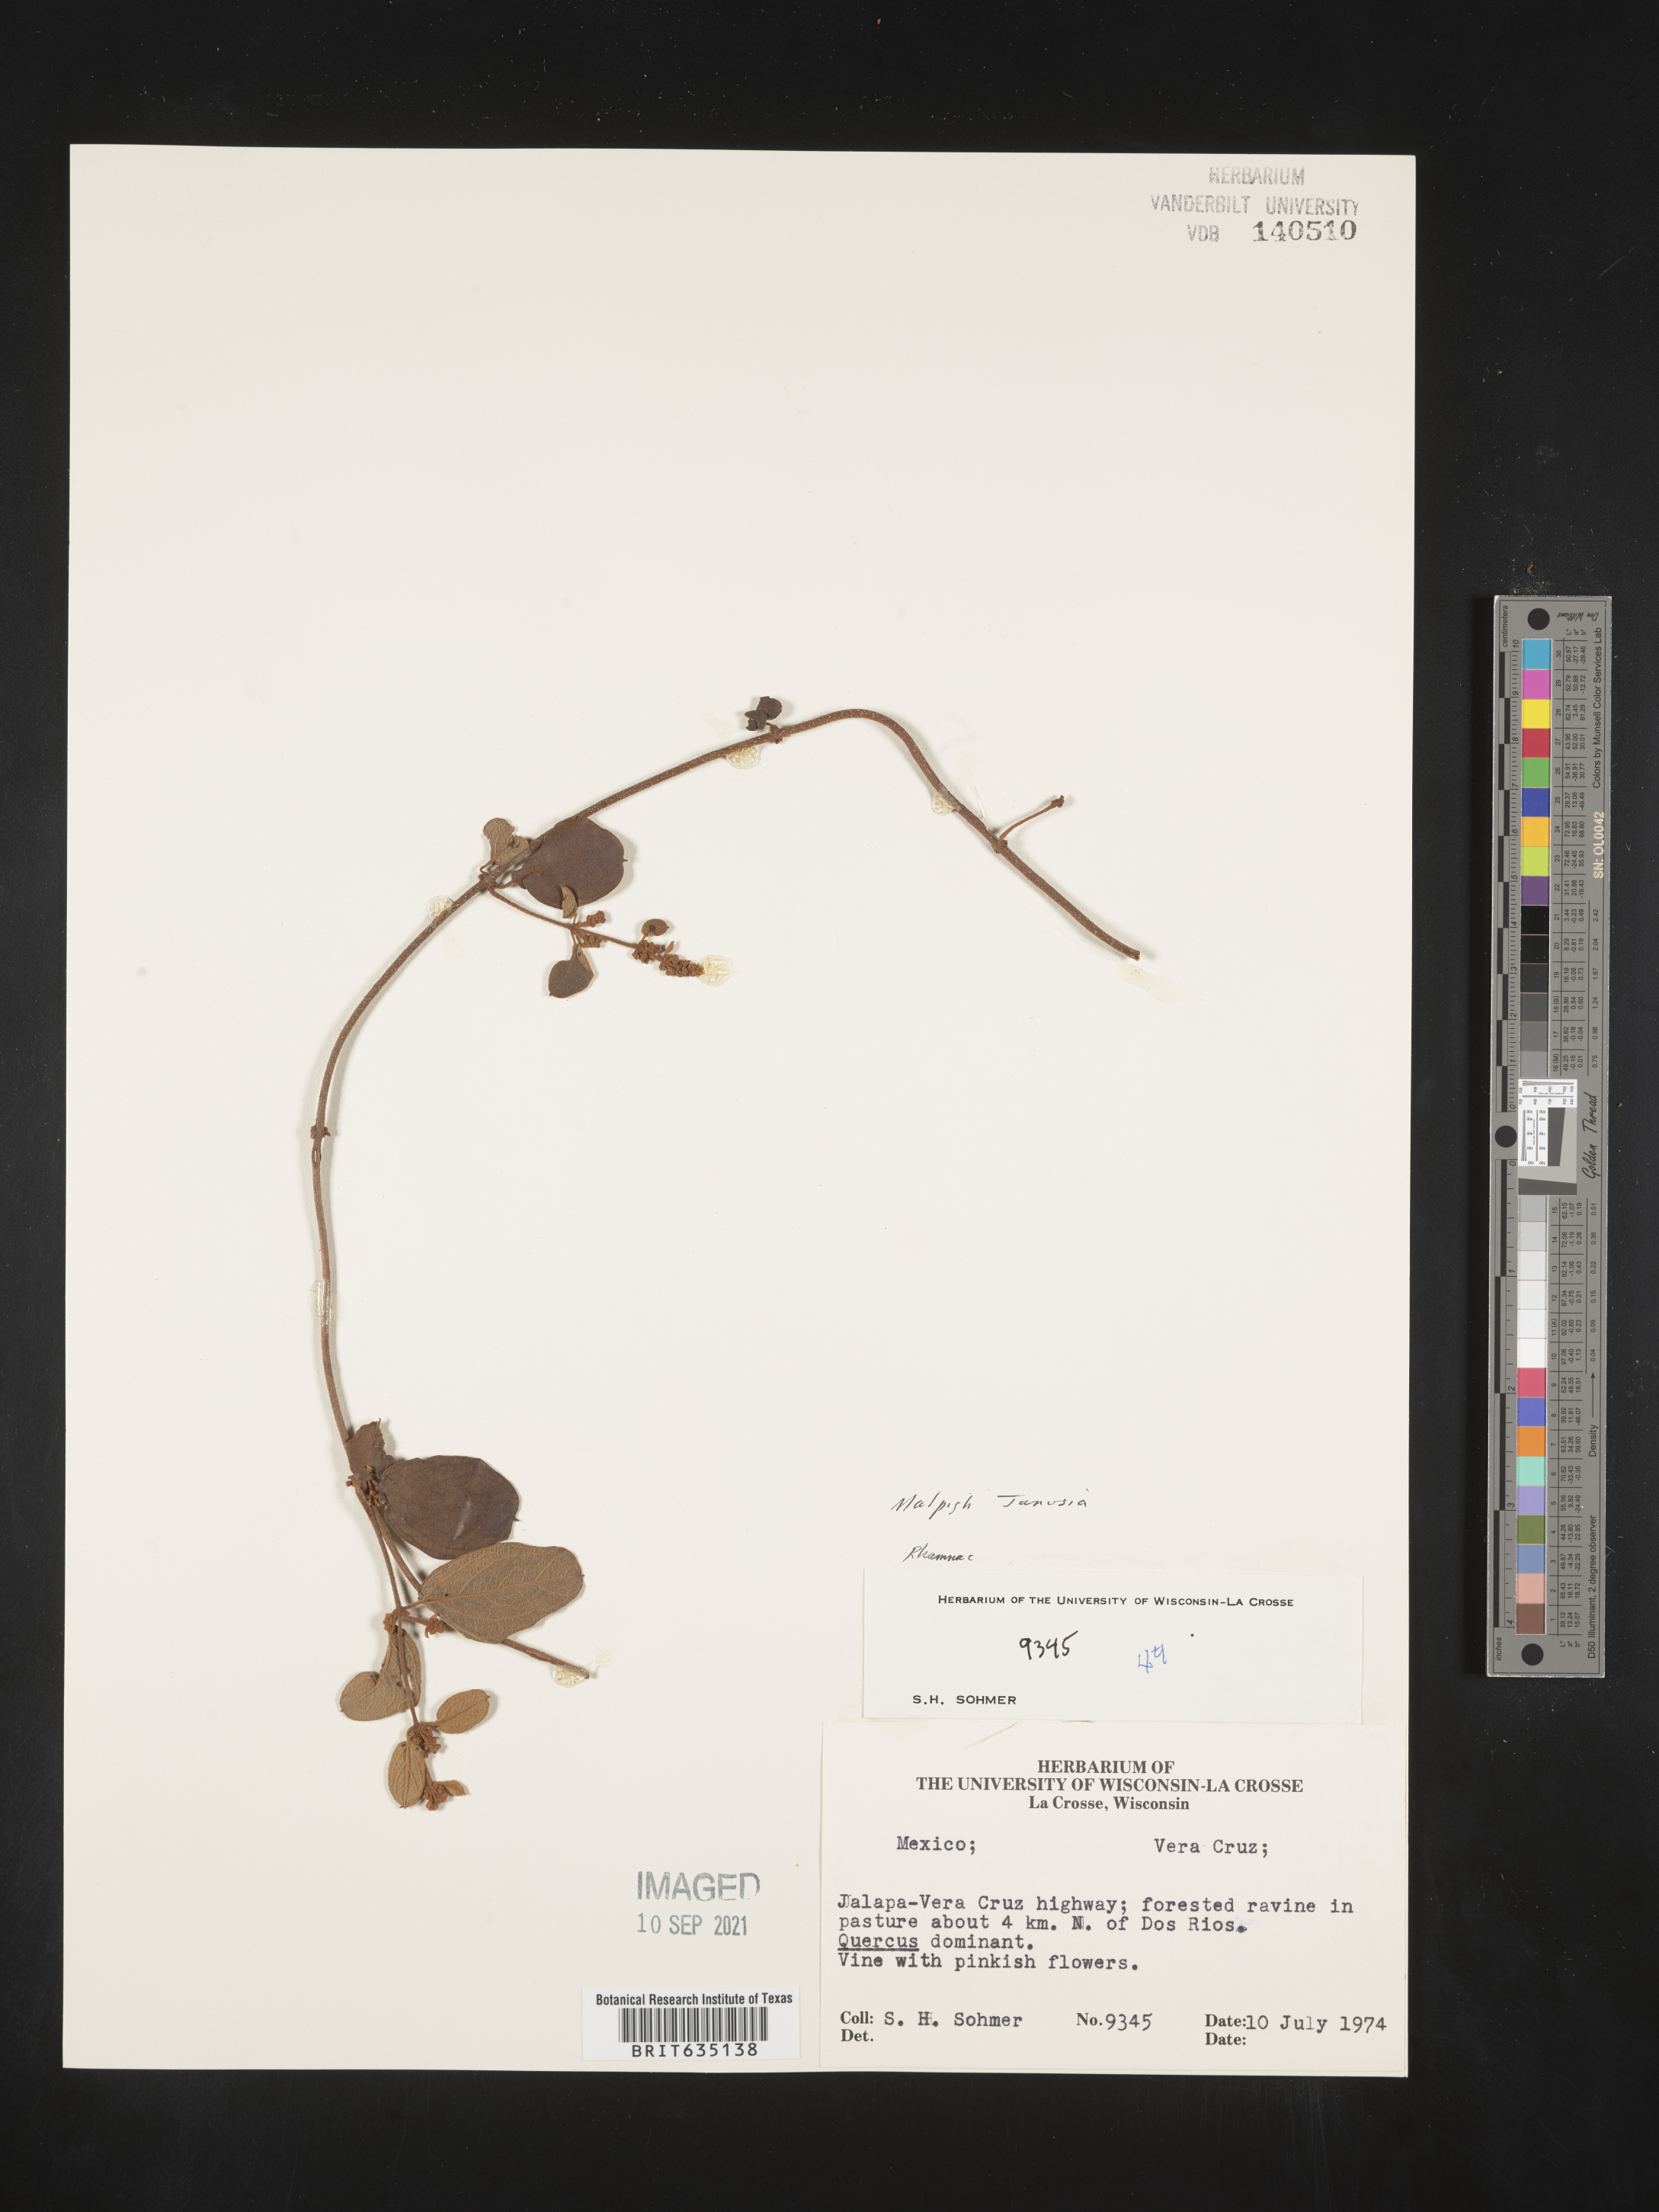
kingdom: Plantae
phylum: Tracheophyta
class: Magnoliopsida
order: Malpighiales
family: Malpighiaceae
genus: Gaudichaudia
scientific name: Gaudichaudia
